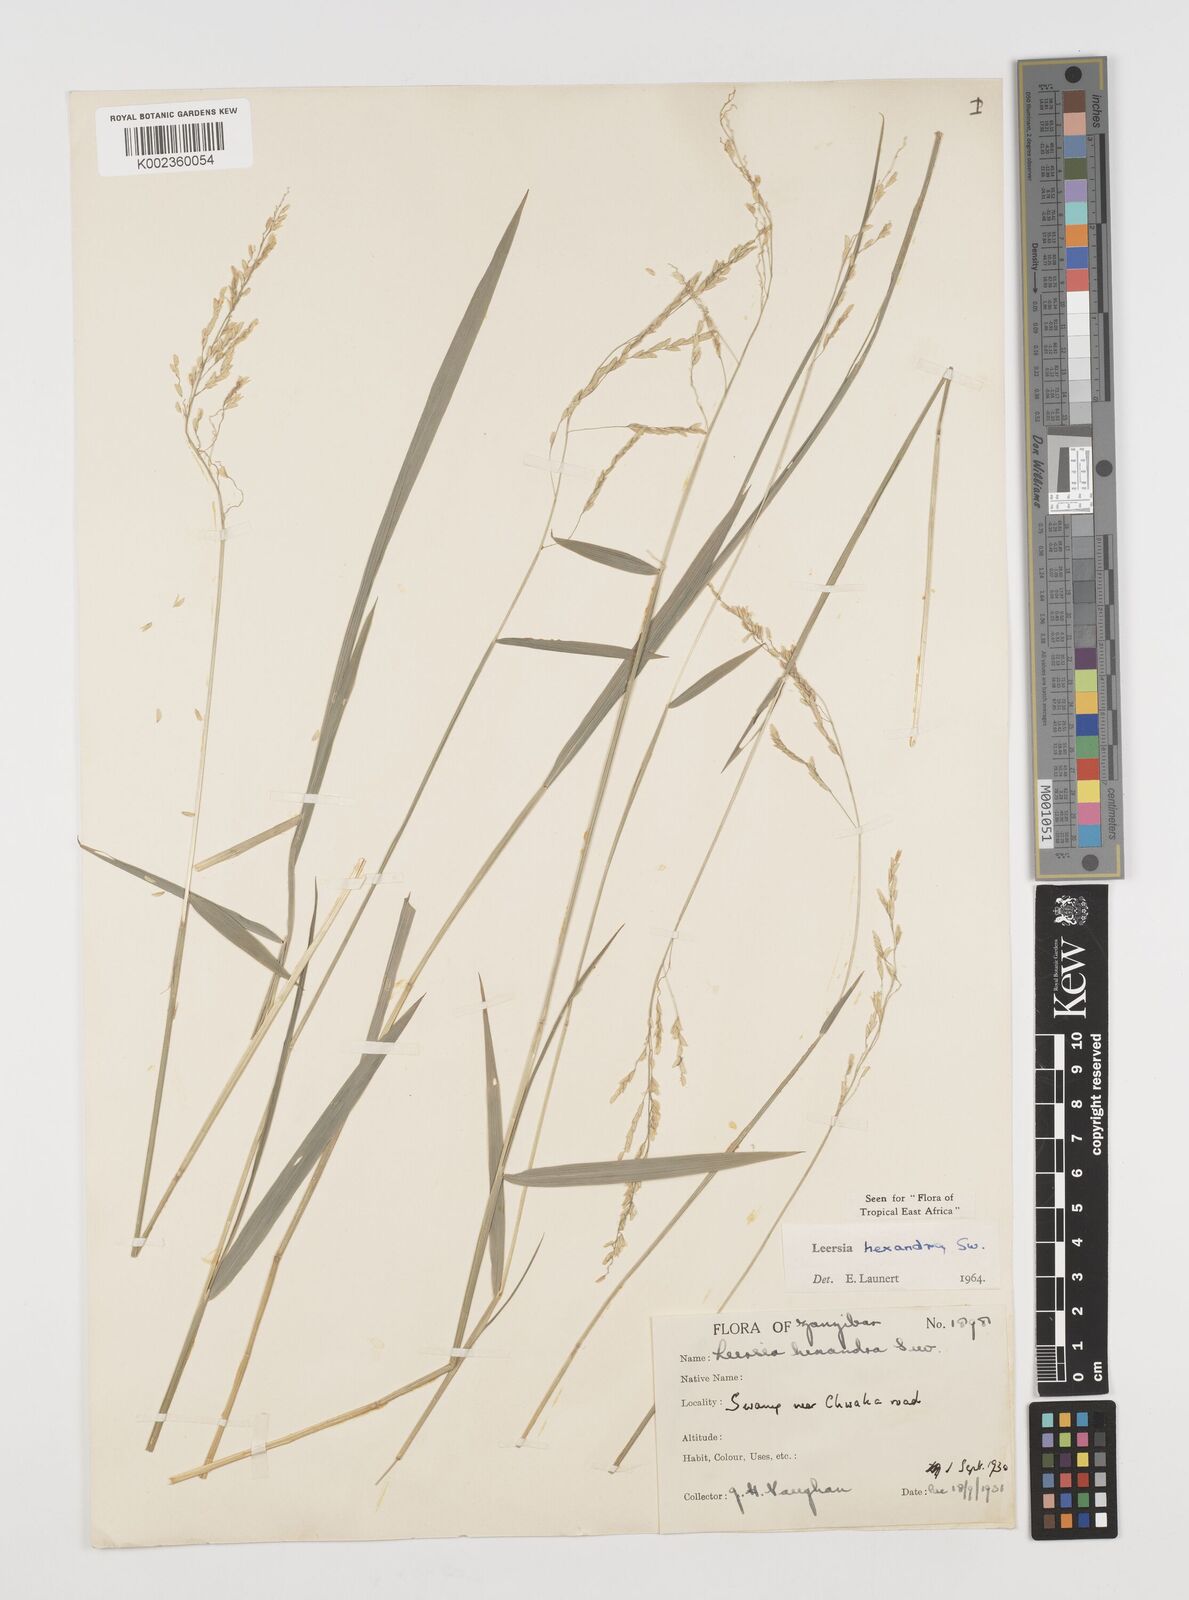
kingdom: Plantae
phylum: Tracheophyta
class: Liliopsida
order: Poales
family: Poaceae
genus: Leersia
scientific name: Leersia hexandra
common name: Southern cut grass
